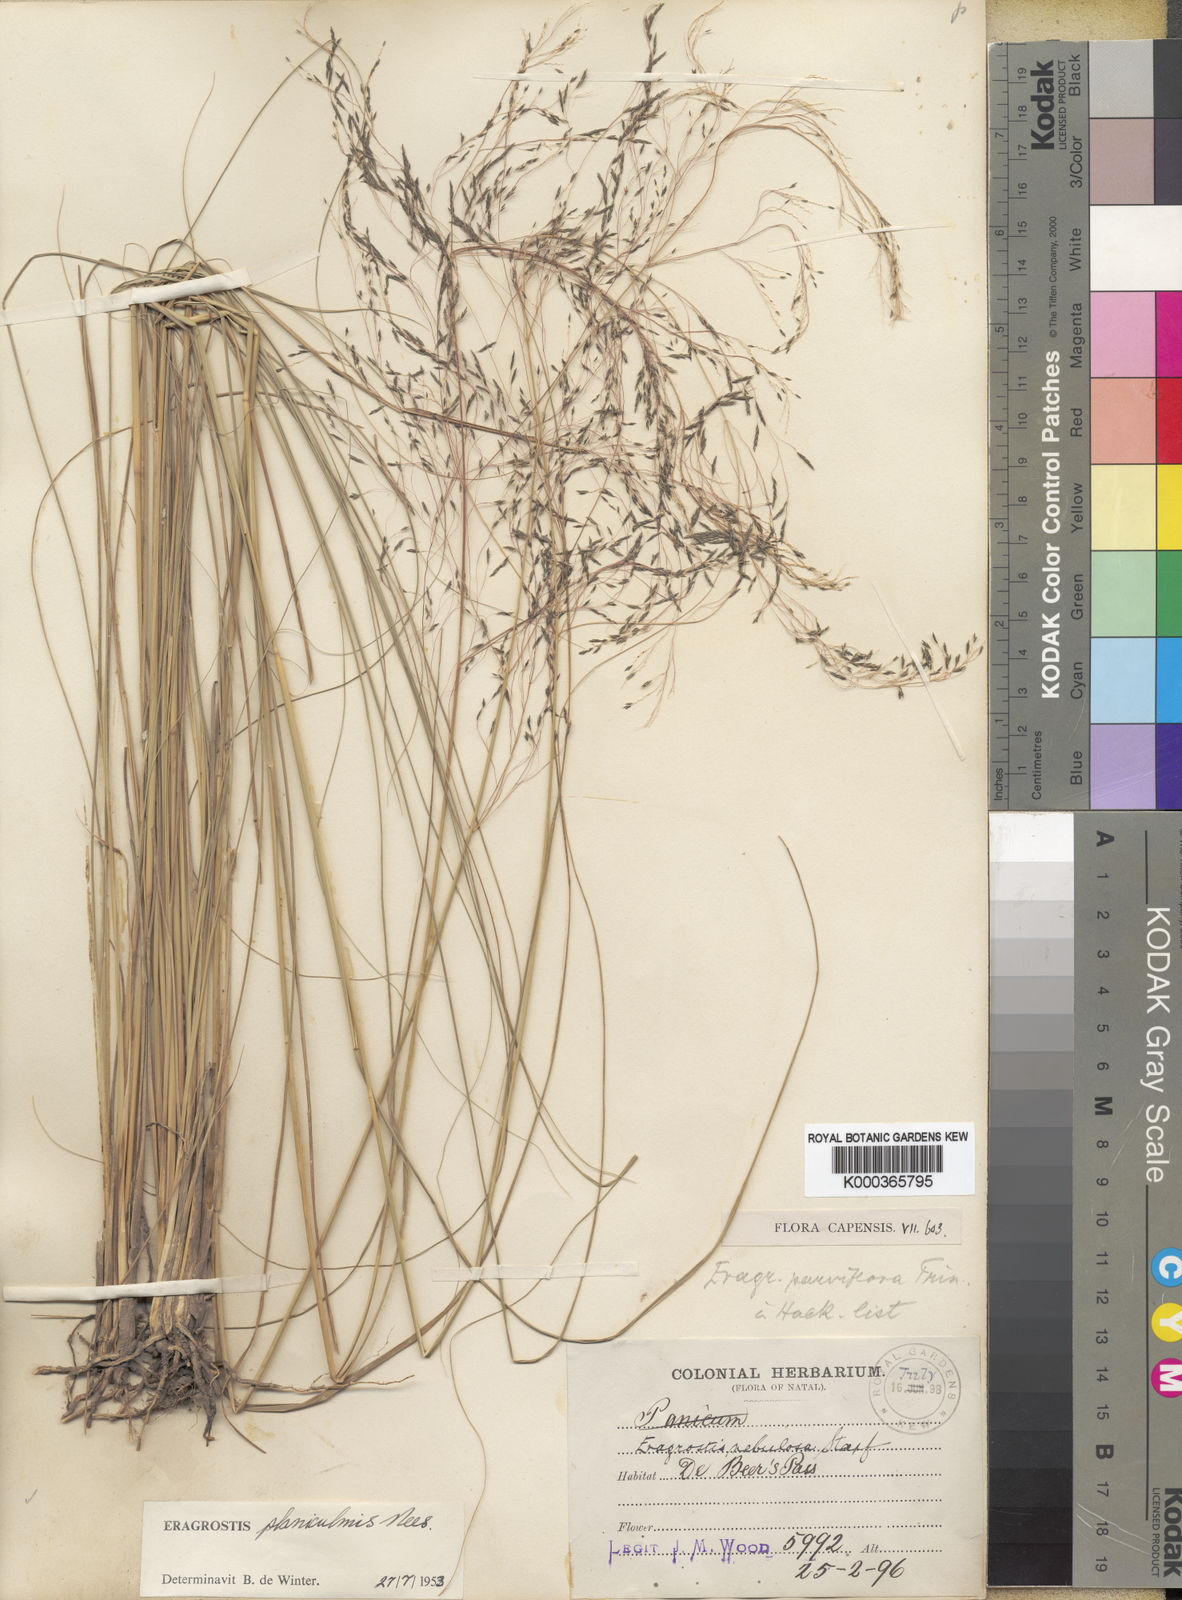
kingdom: Plantae
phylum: Tracheophyta
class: Liliopsida
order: Poales
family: Poaceae
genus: Eragrostis
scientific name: Eragrostis planiculmis
